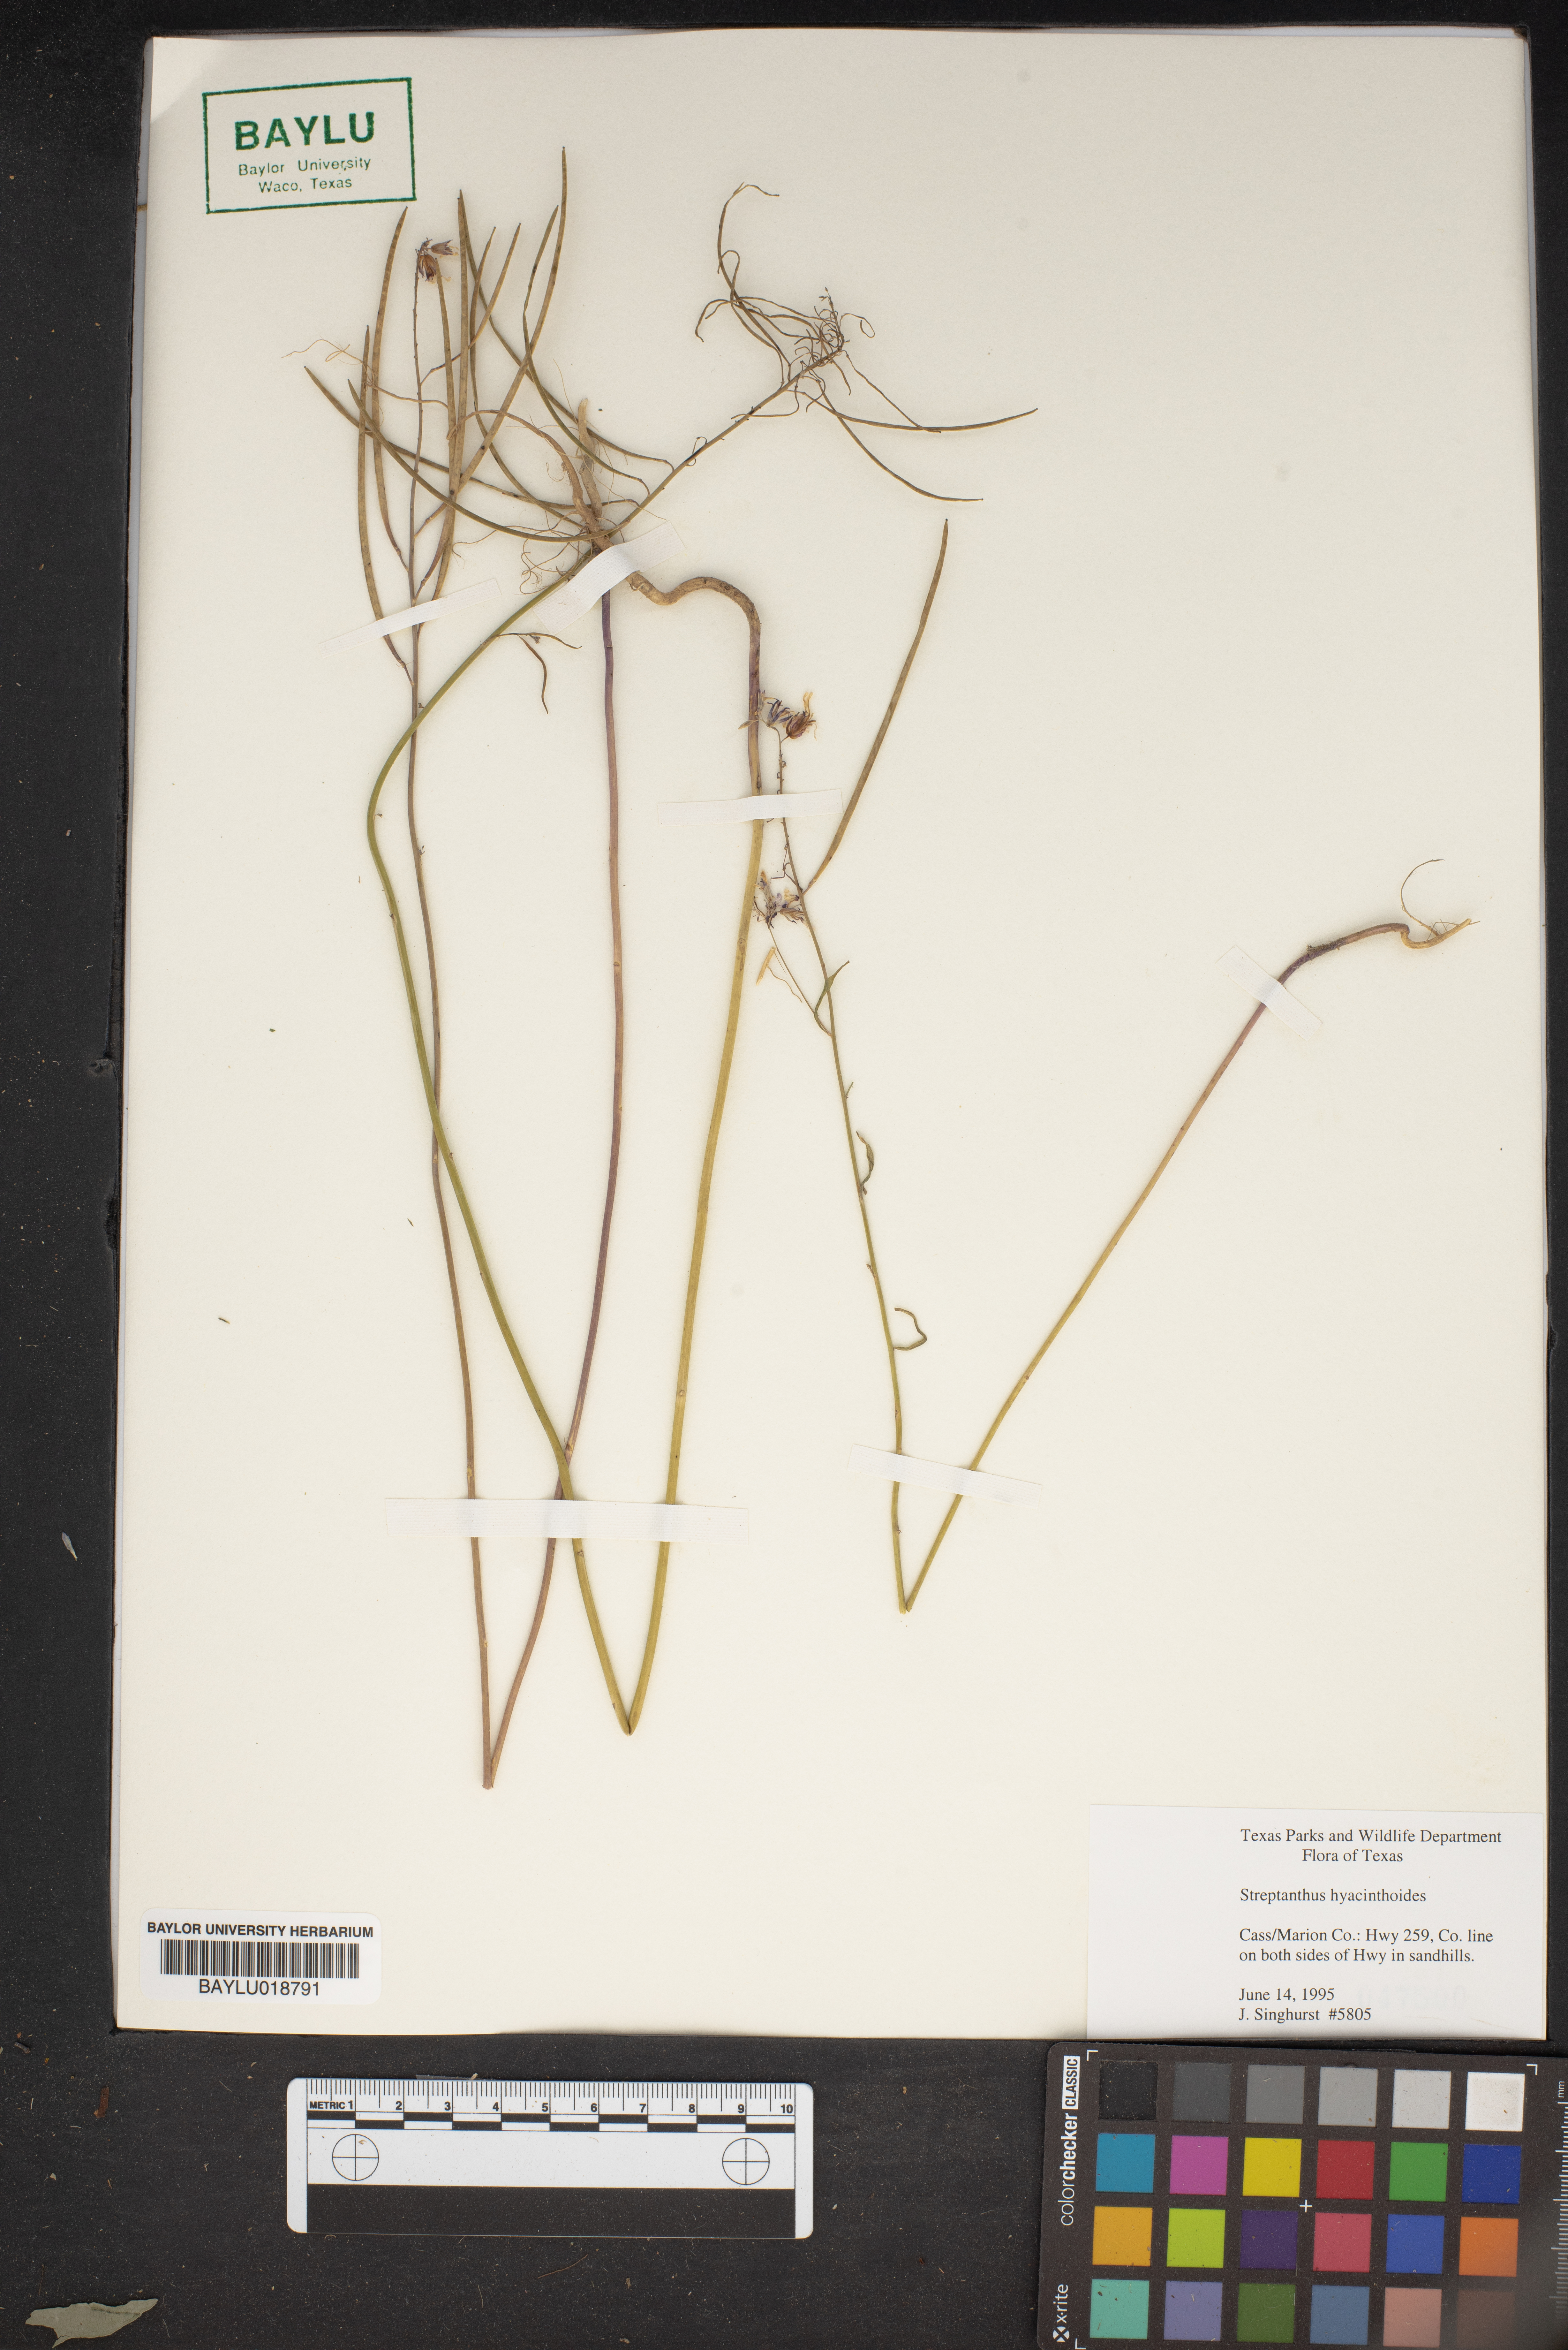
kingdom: Plantae
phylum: Tracheophyta
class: Magnoliopsida
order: Brassicales
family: Brassicaceae
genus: Streptanthus
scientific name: Streptanthus hyacinthoides
